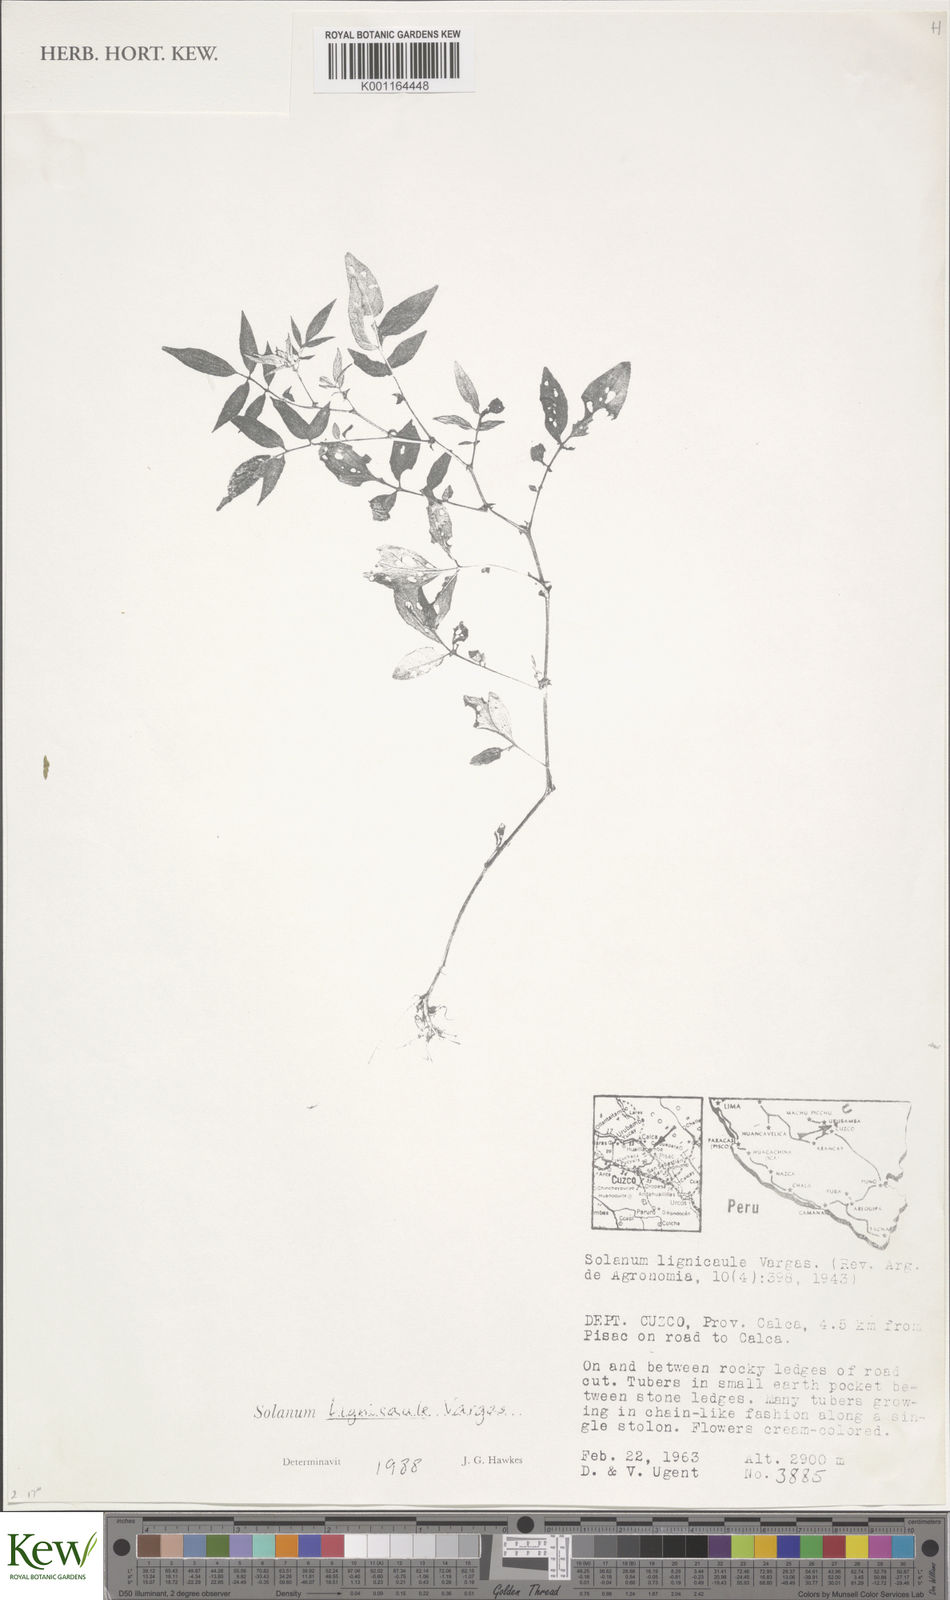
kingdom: Plantae
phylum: Tracheophyta
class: Magnoliopsida
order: Solanales
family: Solanaceae
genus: Solanum
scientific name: Solanum lignicaule
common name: Fox potato
